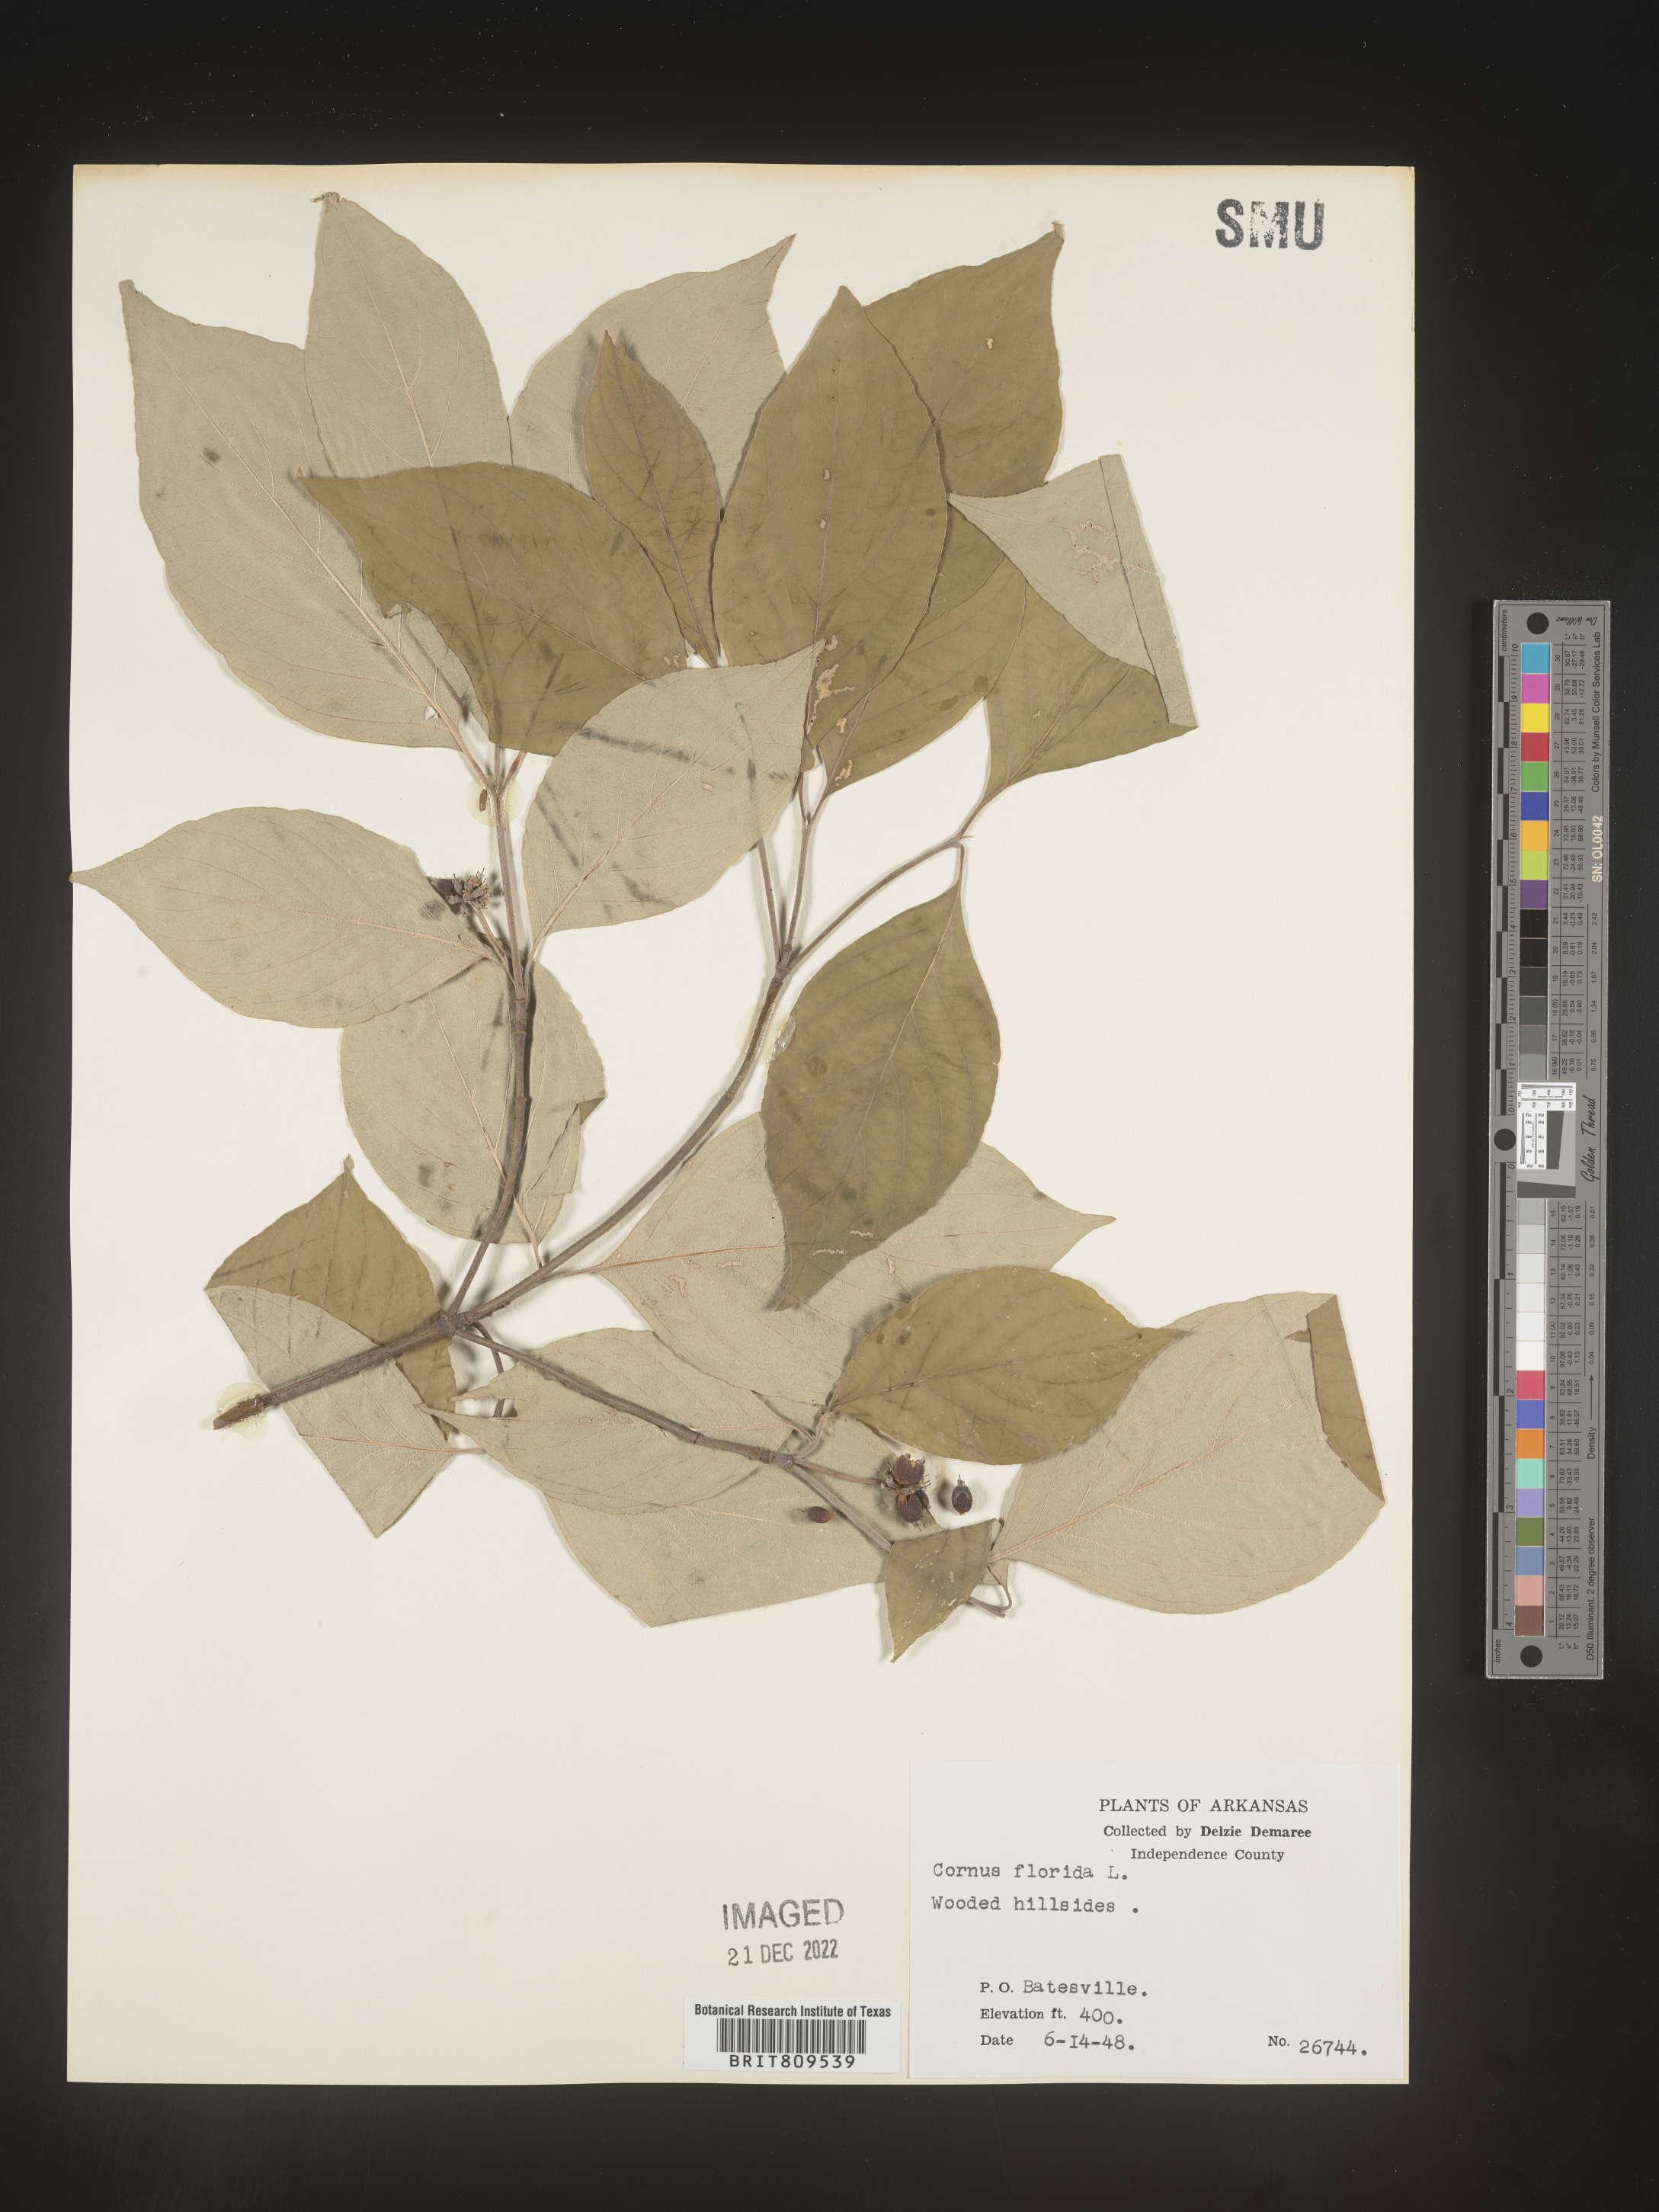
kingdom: Plantae
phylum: Tracheophyta
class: Magnoliopsida
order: Cornales
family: Cornaceae
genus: Cornus
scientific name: Cornus florida
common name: Flowering dogwood
